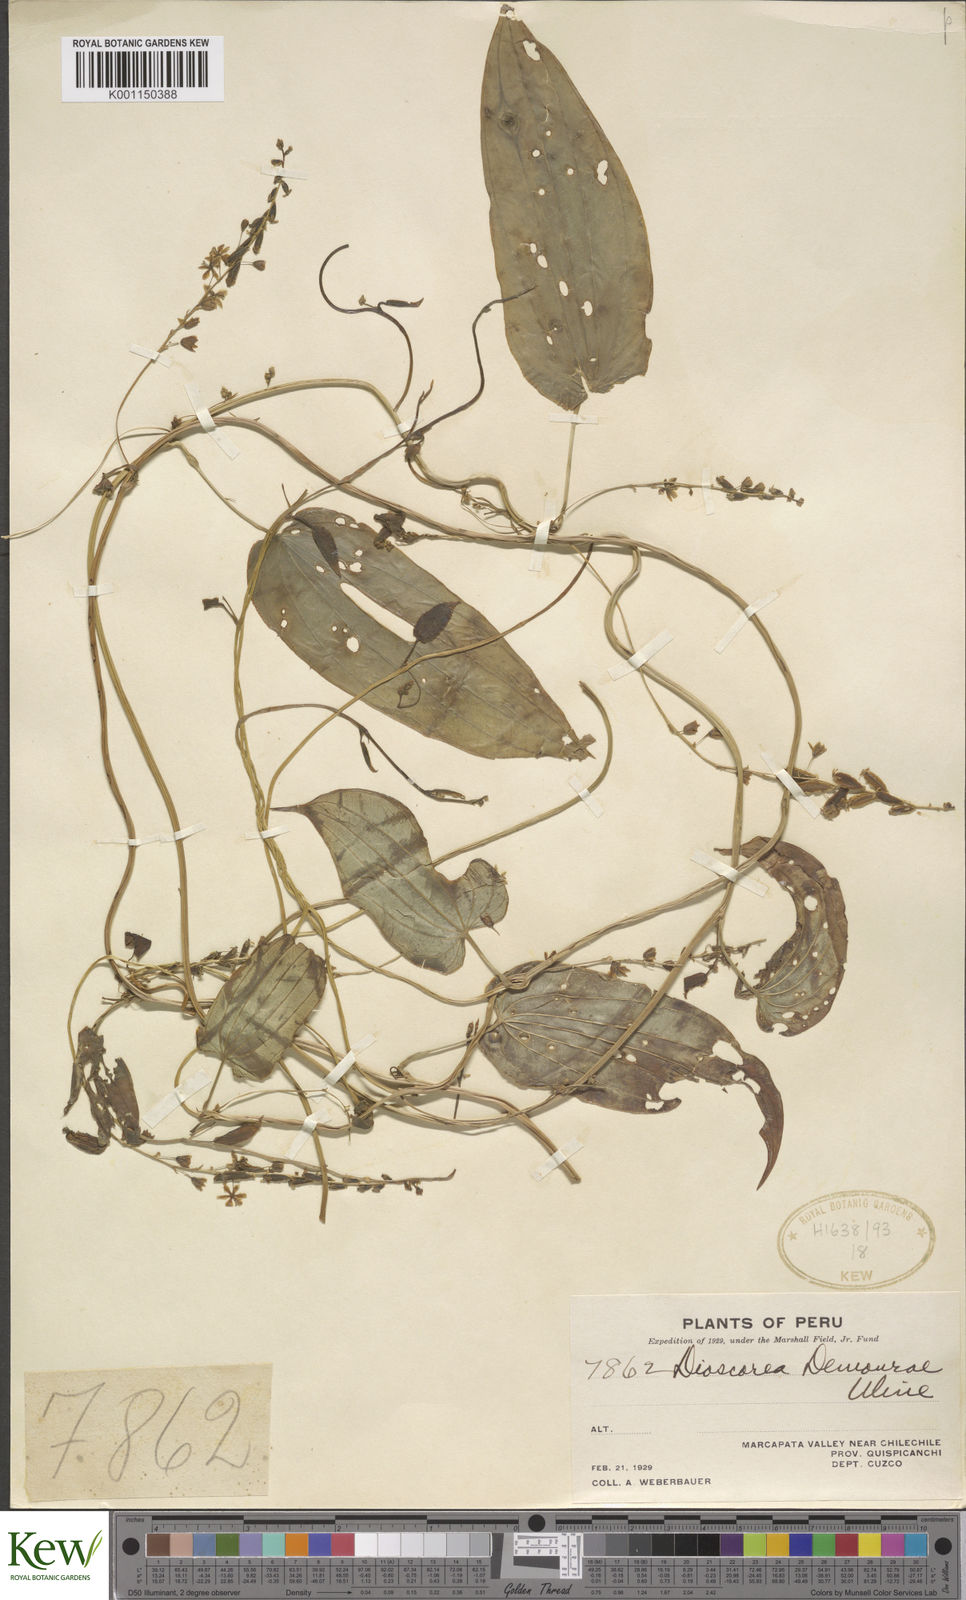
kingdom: Plantae
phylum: Tracheophyta
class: Liliopsida
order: Dioscoreales
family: Dioscoreaceae
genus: Dioscorea
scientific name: Dioscorea trifurcata
